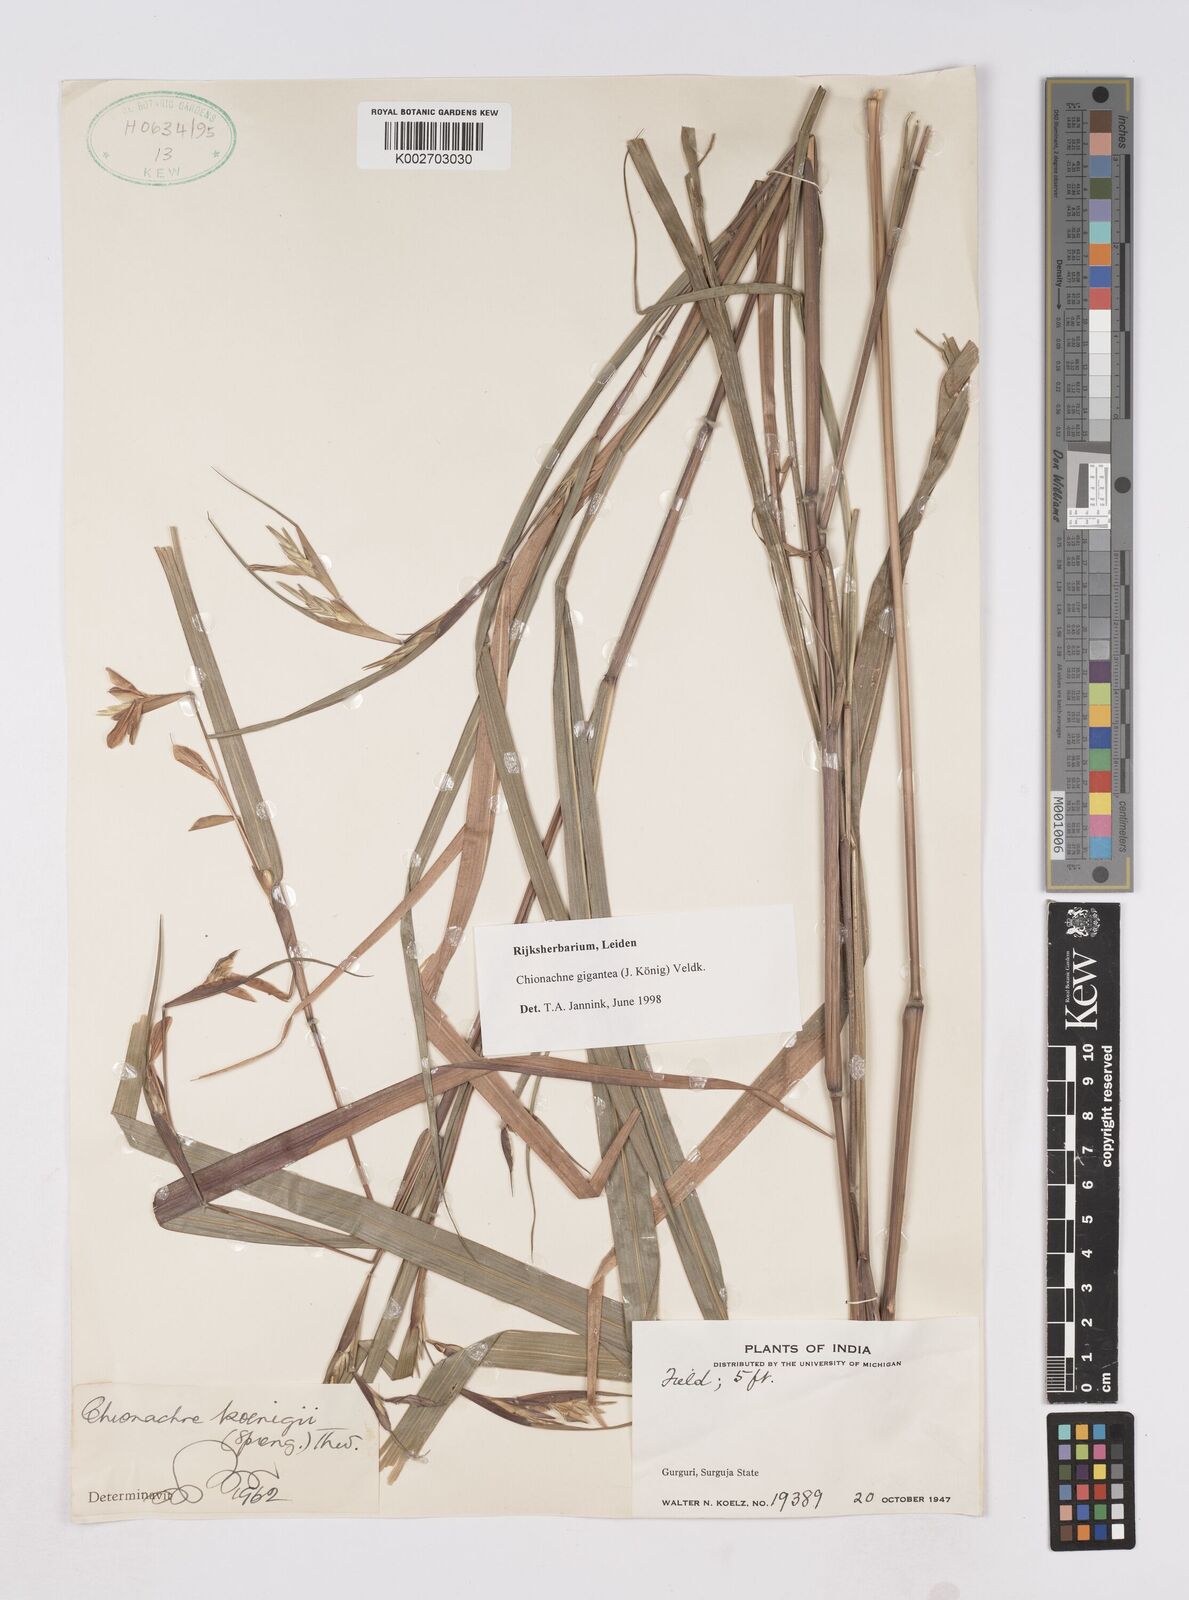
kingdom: Plantae
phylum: Tracheophyta
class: Liliopsida
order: Poales
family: Poaceae
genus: Polytoca
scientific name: Polytoca gigantea
